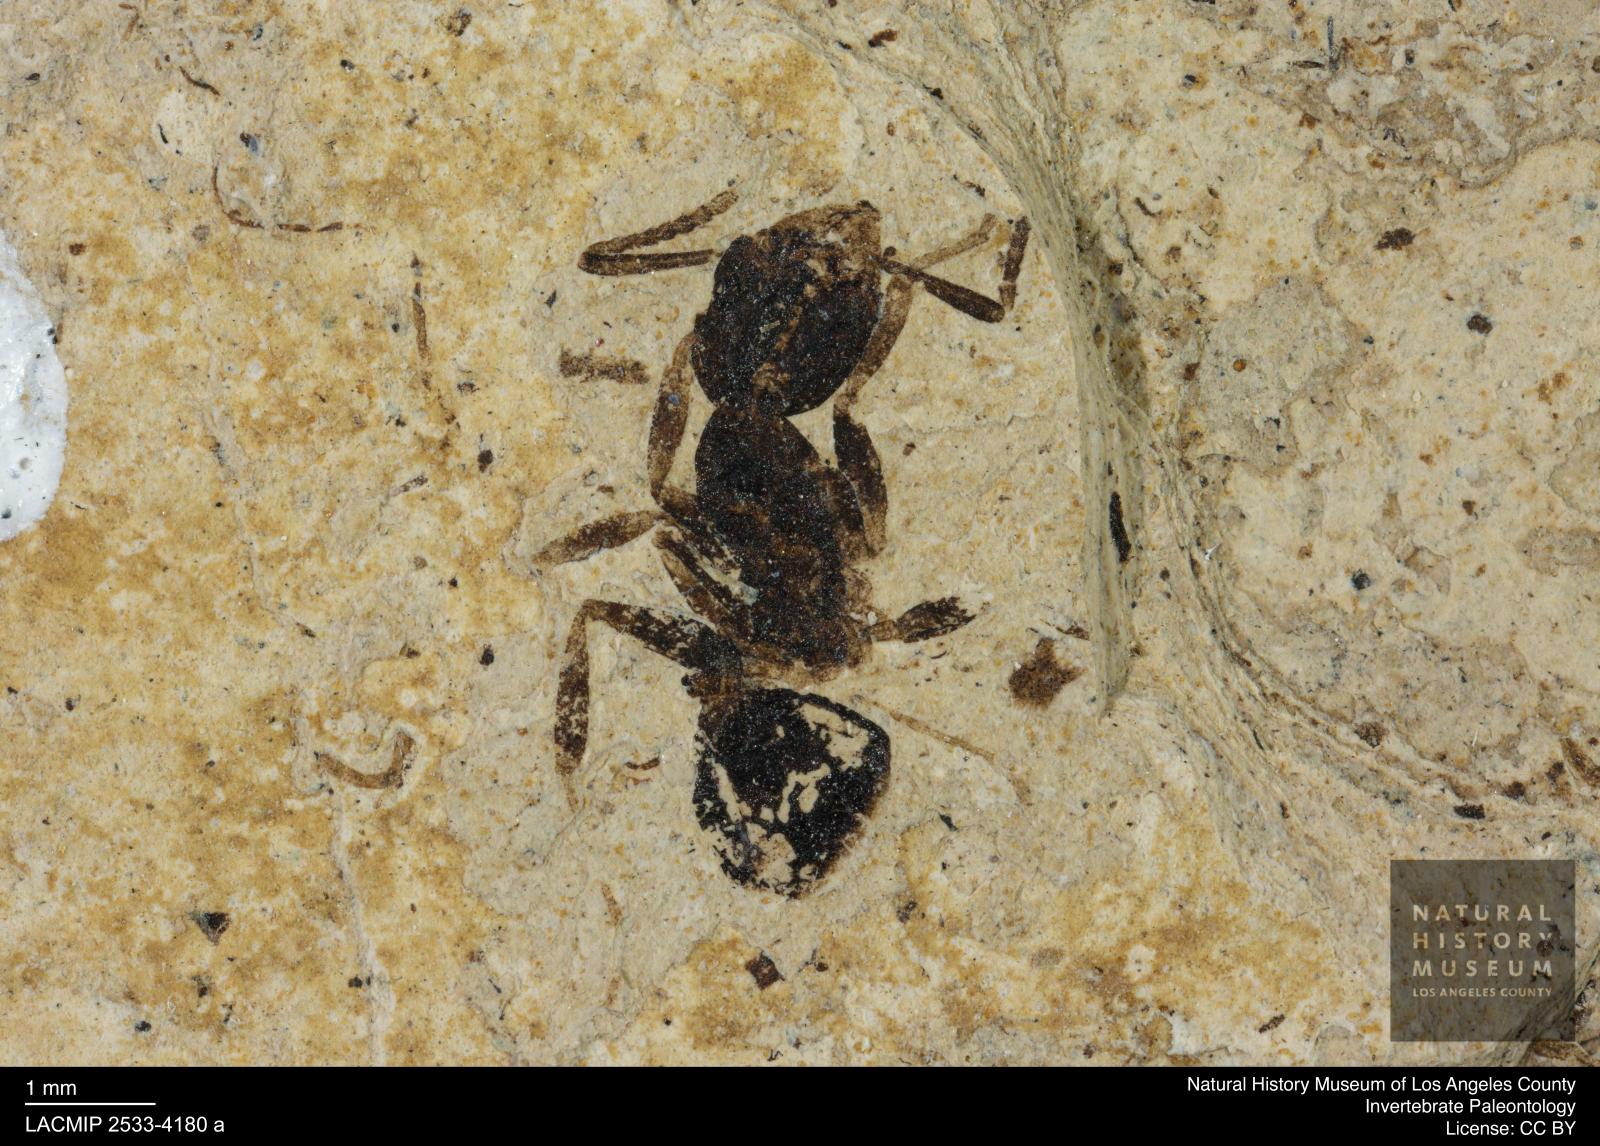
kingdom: Animalia
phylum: Arthropoda
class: Insecta
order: Hymenoptera
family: Formicidae
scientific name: Formicidae
